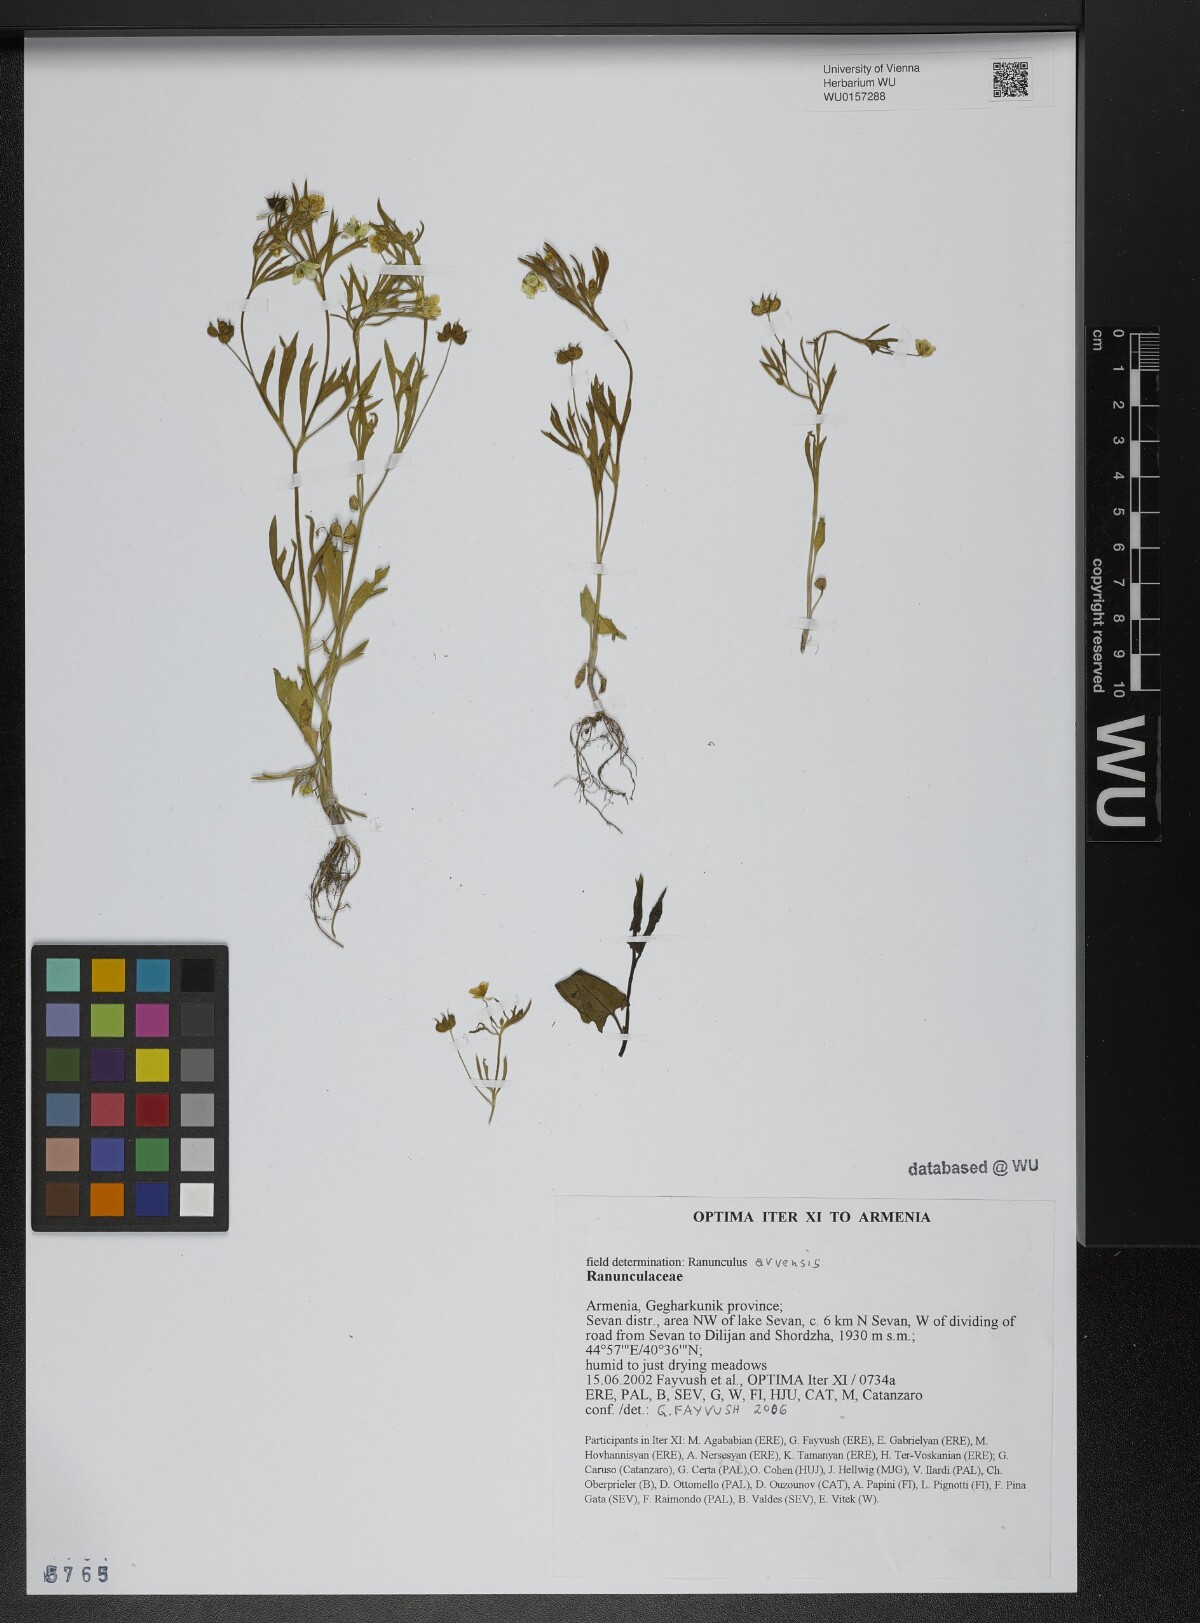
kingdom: Plantae
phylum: Tracheophyta
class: Magnoliopsida
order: Ranunculales
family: Ranunculaceae
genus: Ranunculus
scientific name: Ranunculus arvensis
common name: Corn buttercup
